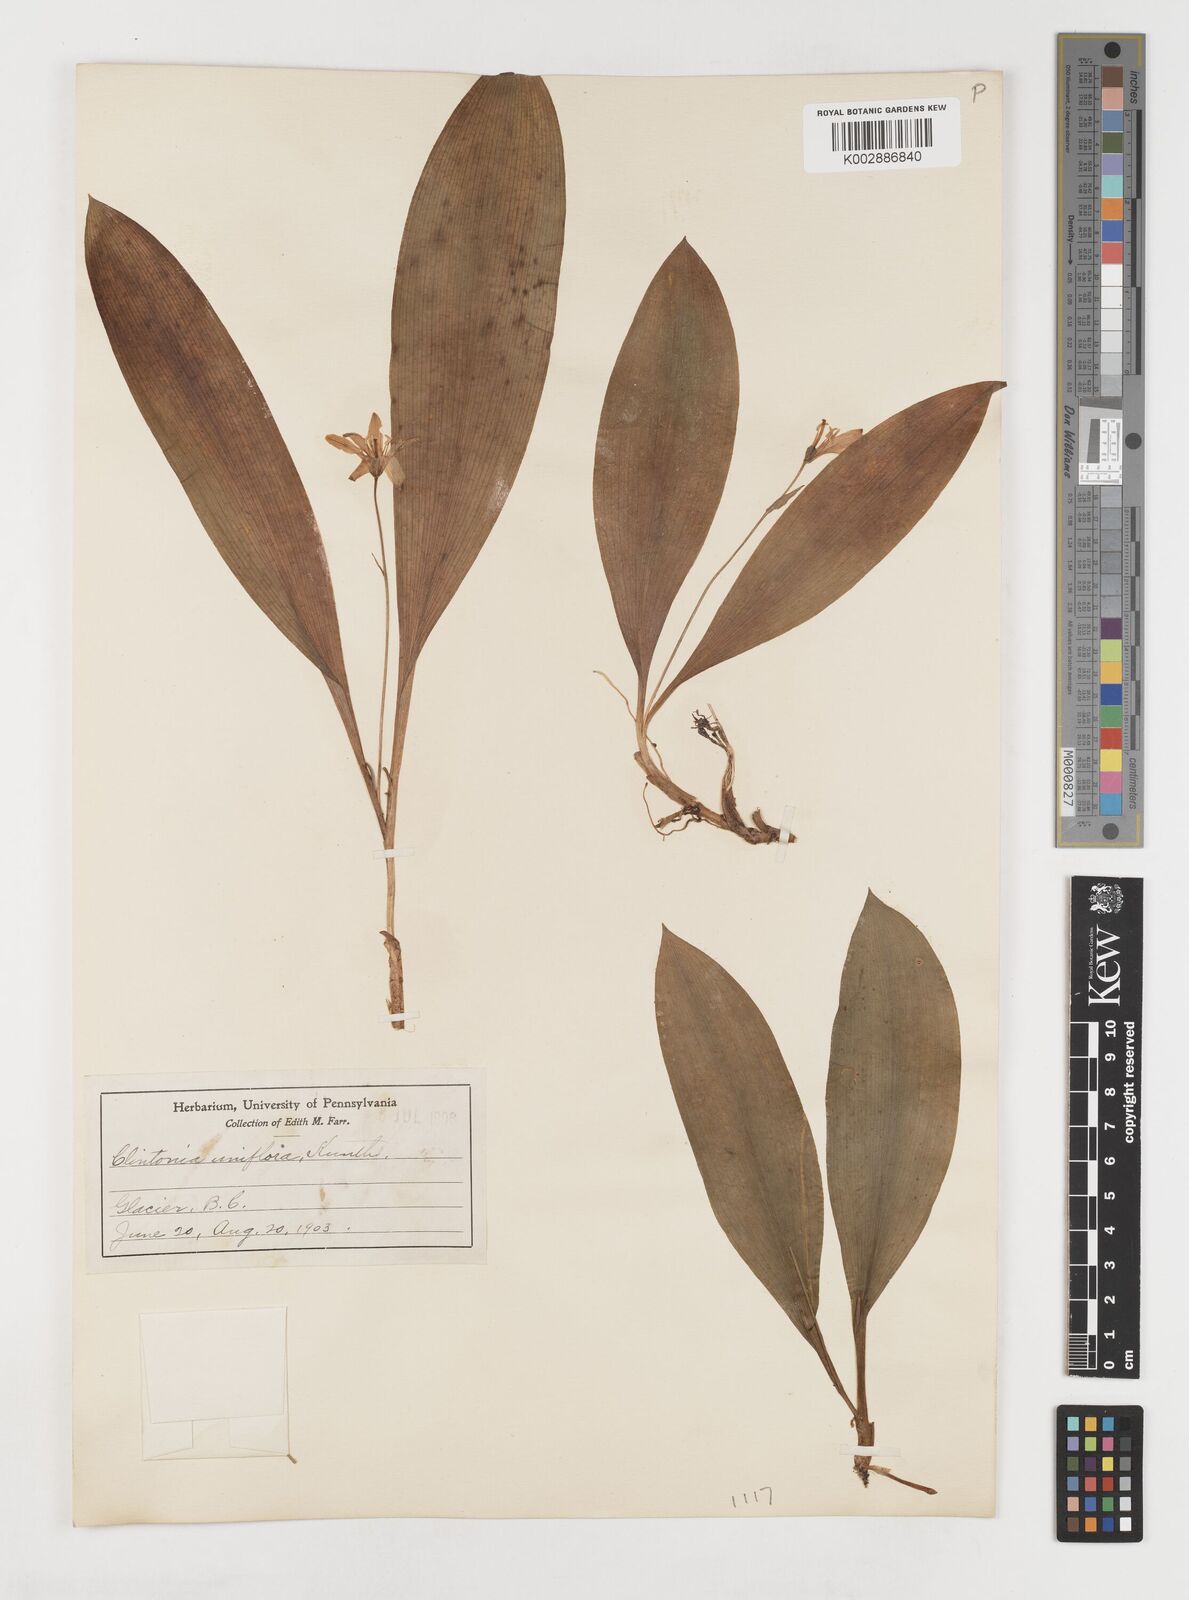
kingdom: Plantae
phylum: Tracheophyta
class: Liliopsida
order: Liliales
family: Liliaceae
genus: Clintonia
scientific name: Clintonia uniflora
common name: Queen's cup
